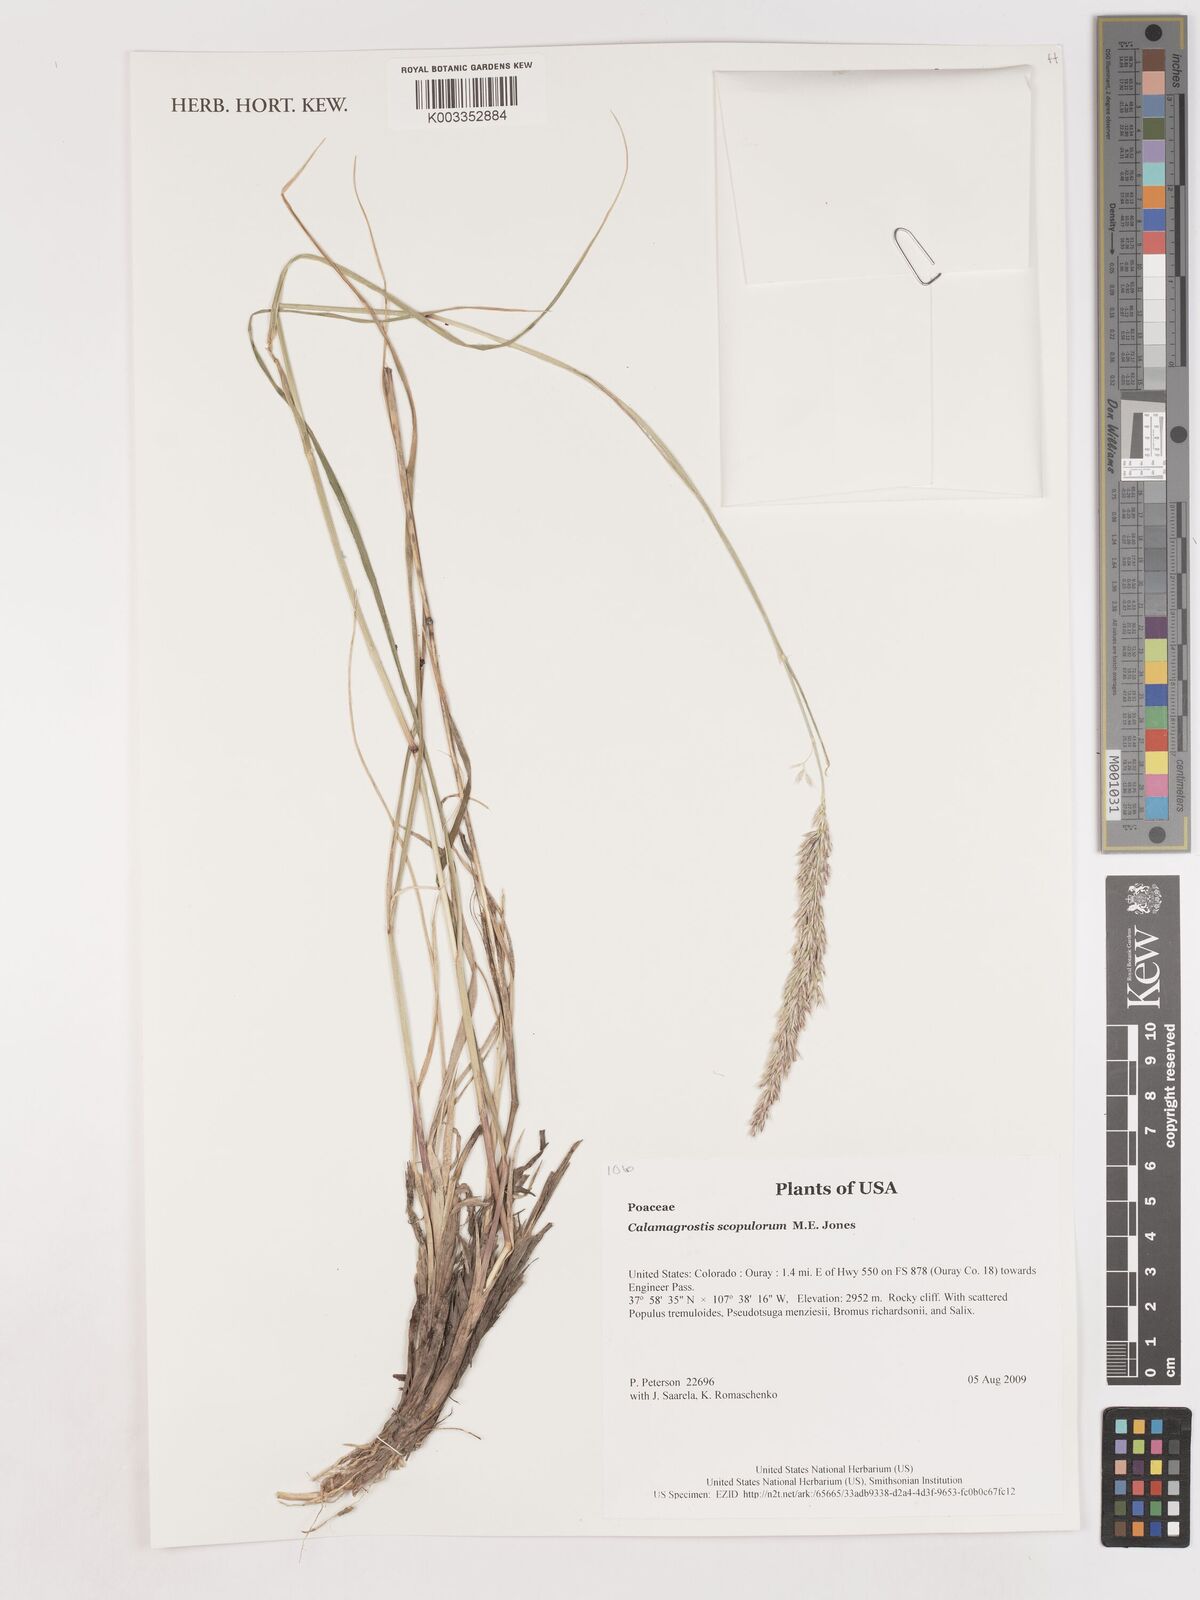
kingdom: Plantae
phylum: Tracheophyta
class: Liliopsida
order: Poales
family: Poaceae
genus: Calamagrostis
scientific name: Calamagrostis scopulorum
